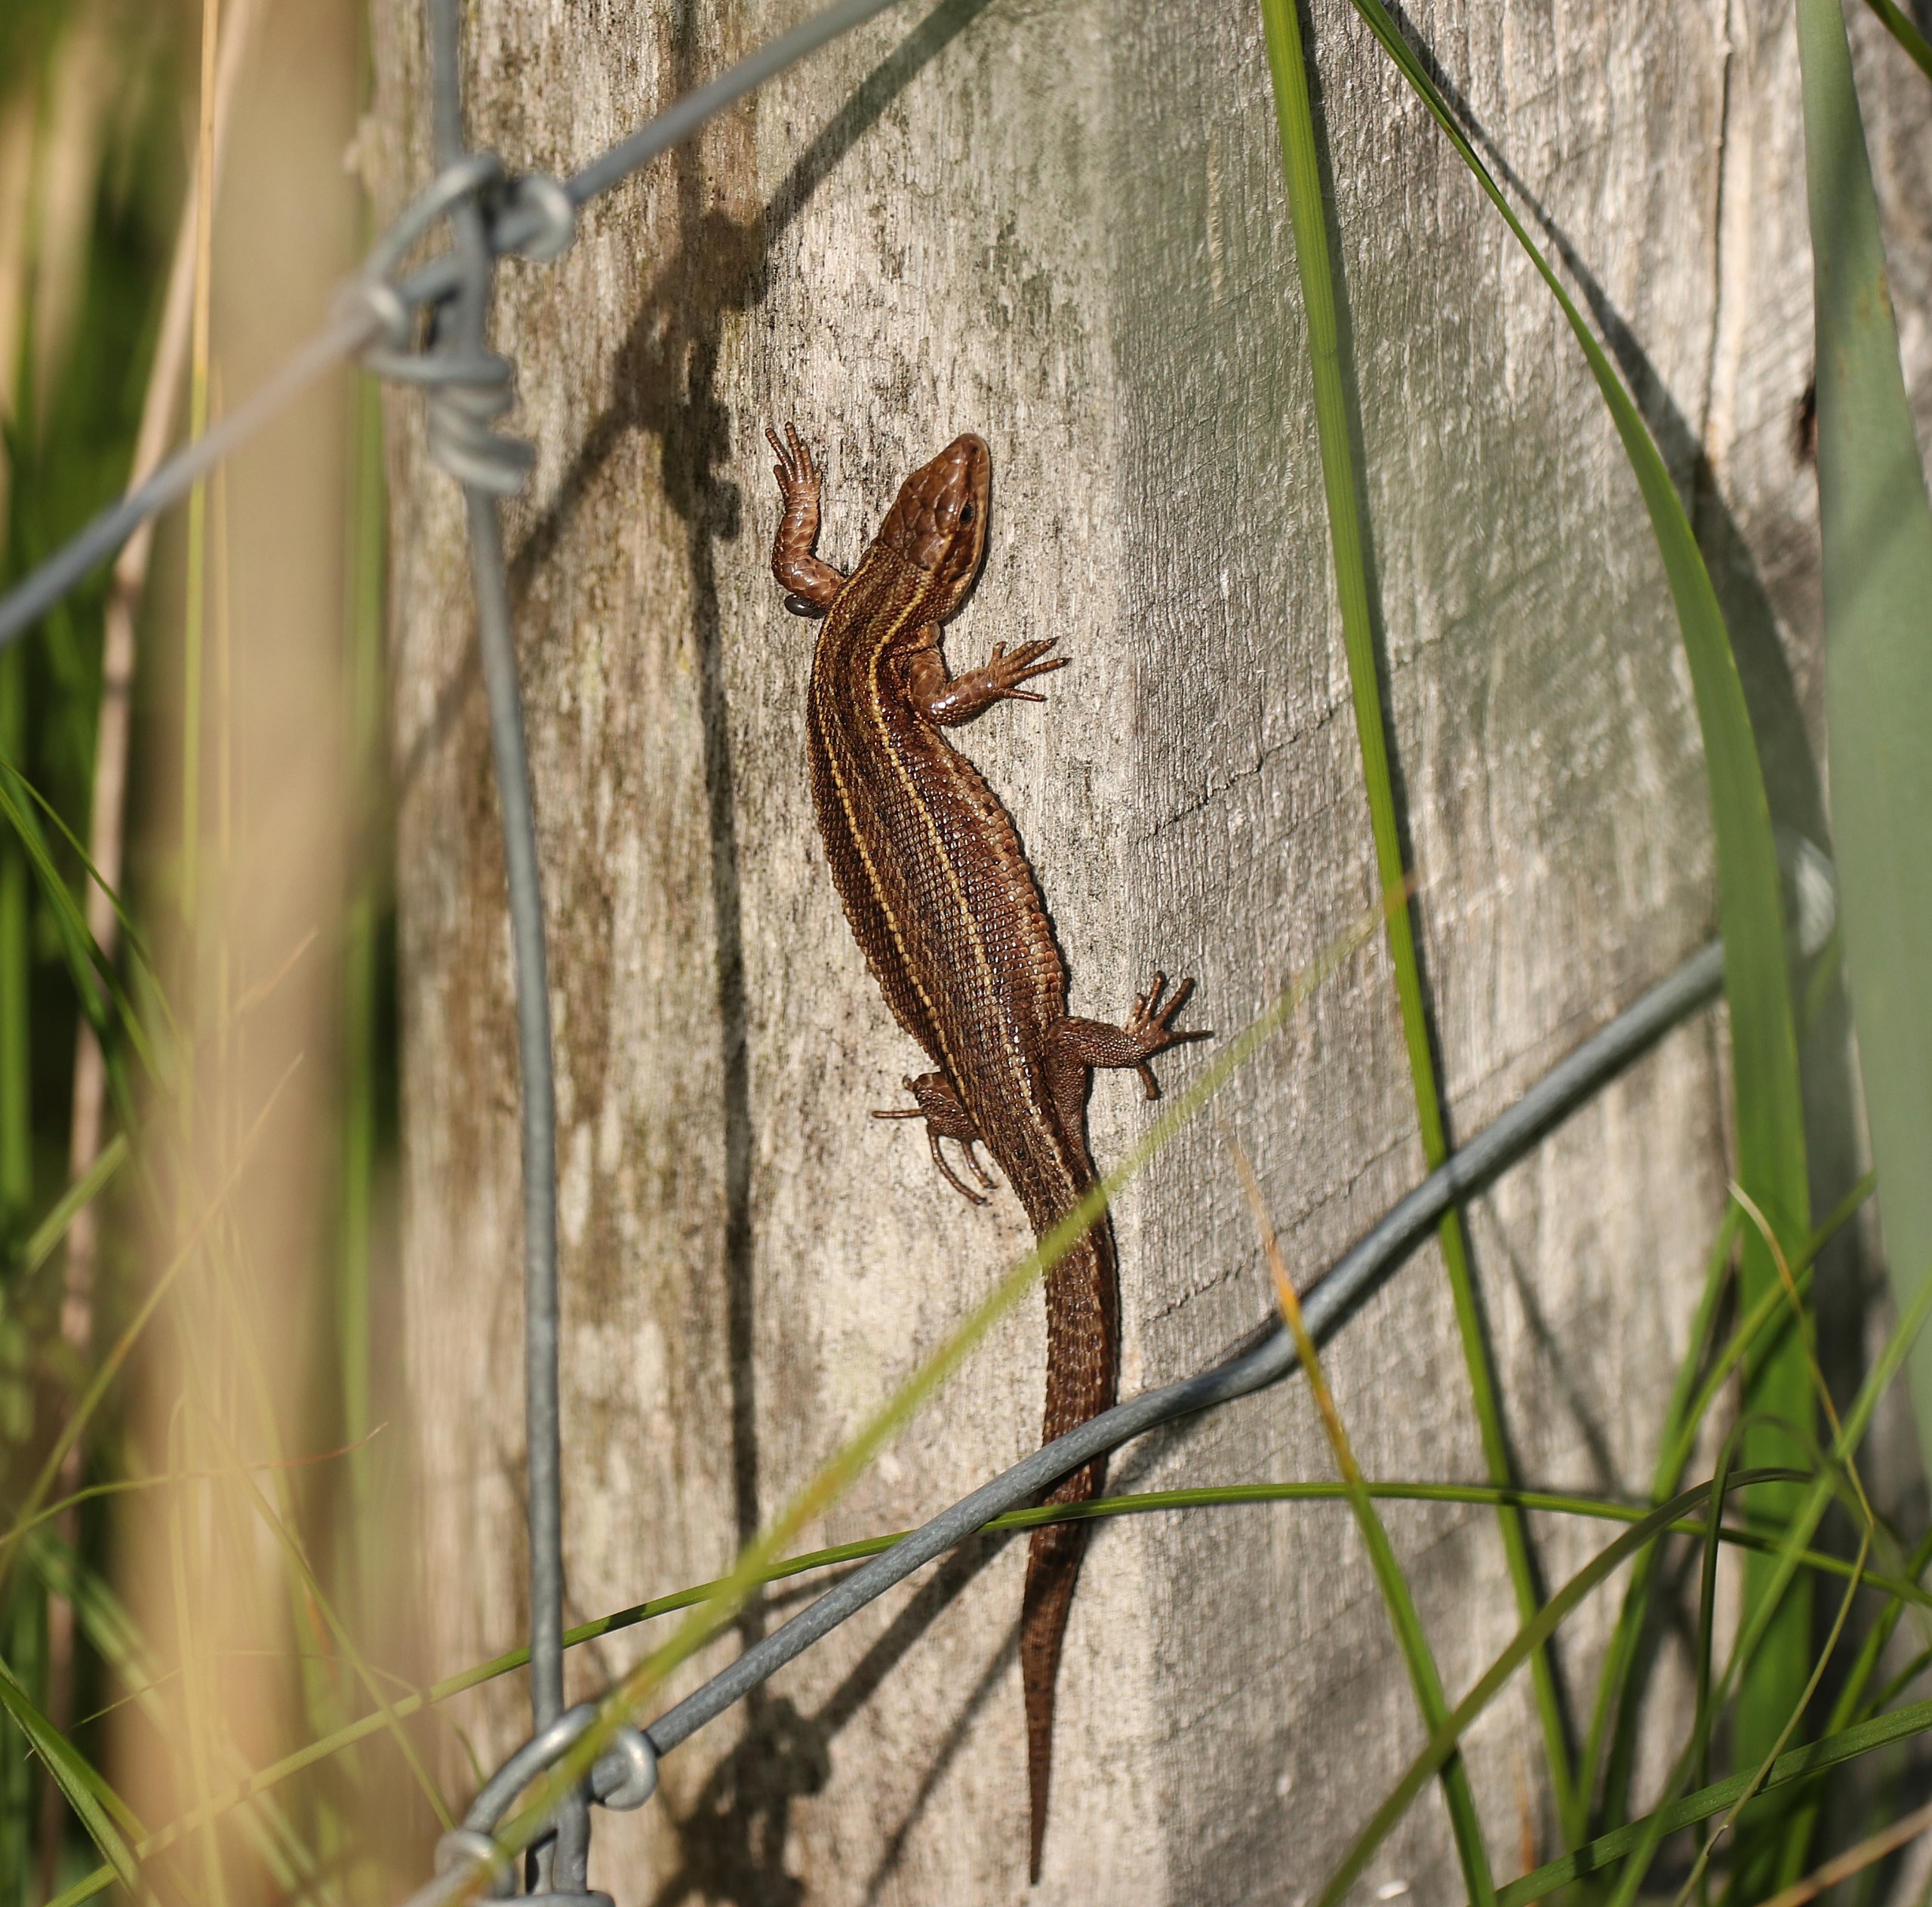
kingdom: Animalia
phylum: Chordata
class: Squamata
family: Lacertidae
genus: Zootoca
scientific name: Zootoca vivipara
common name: Skovfirben
